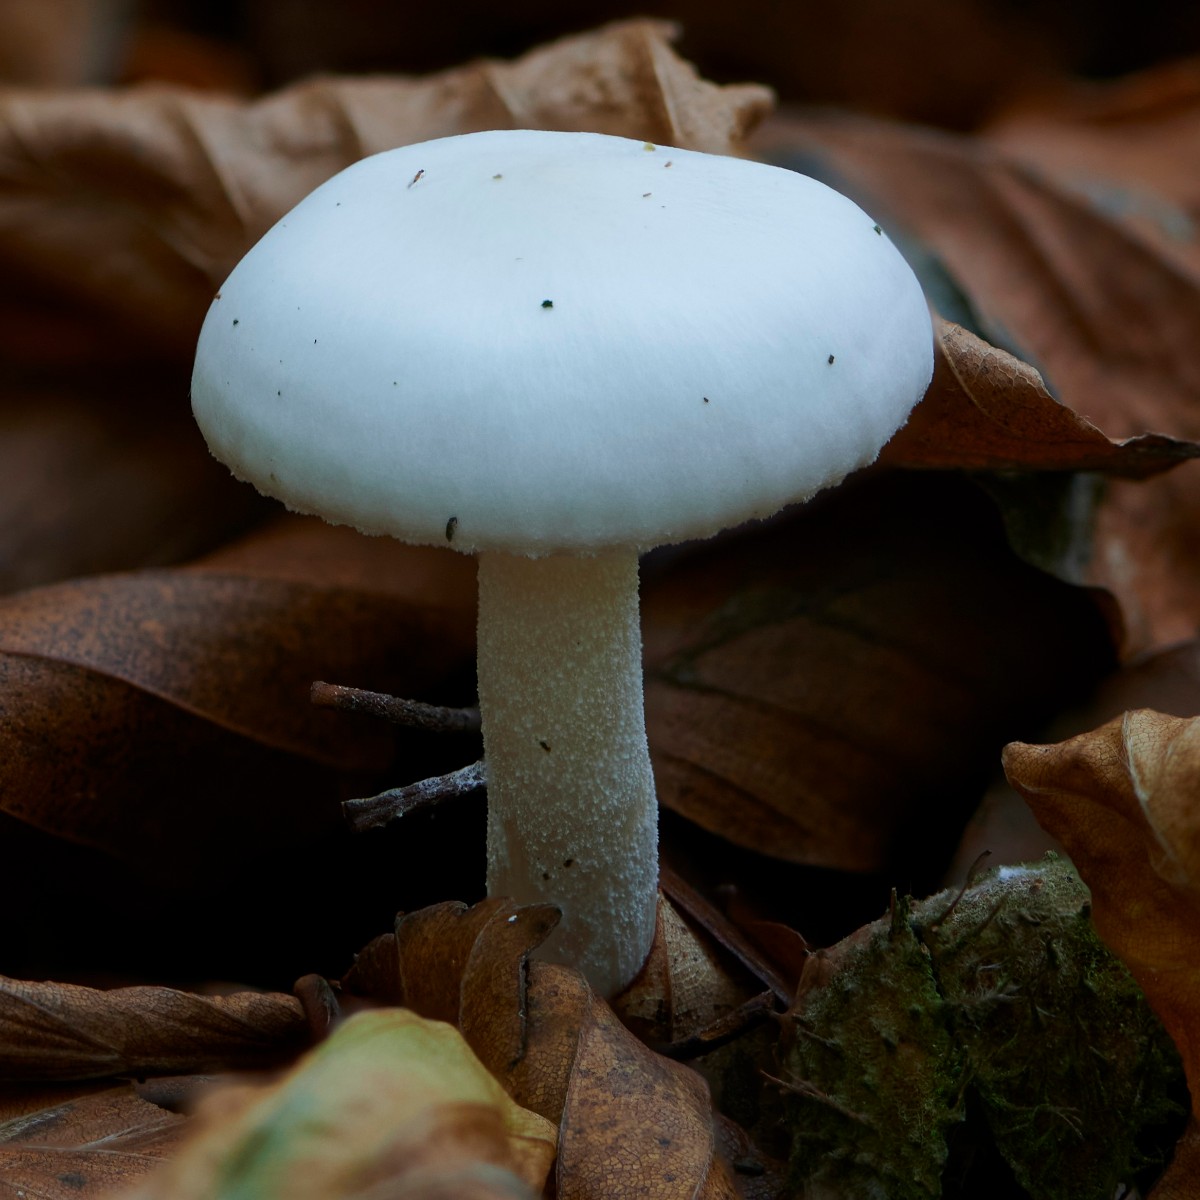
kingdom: Fungi
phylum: Basidiomycota
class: Agaricomycetes
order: Agaricales
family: Hygrophoraceae
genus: Hygrophorus
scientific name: Hygrophorus eburneus
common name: elfenbens-sneglehat
